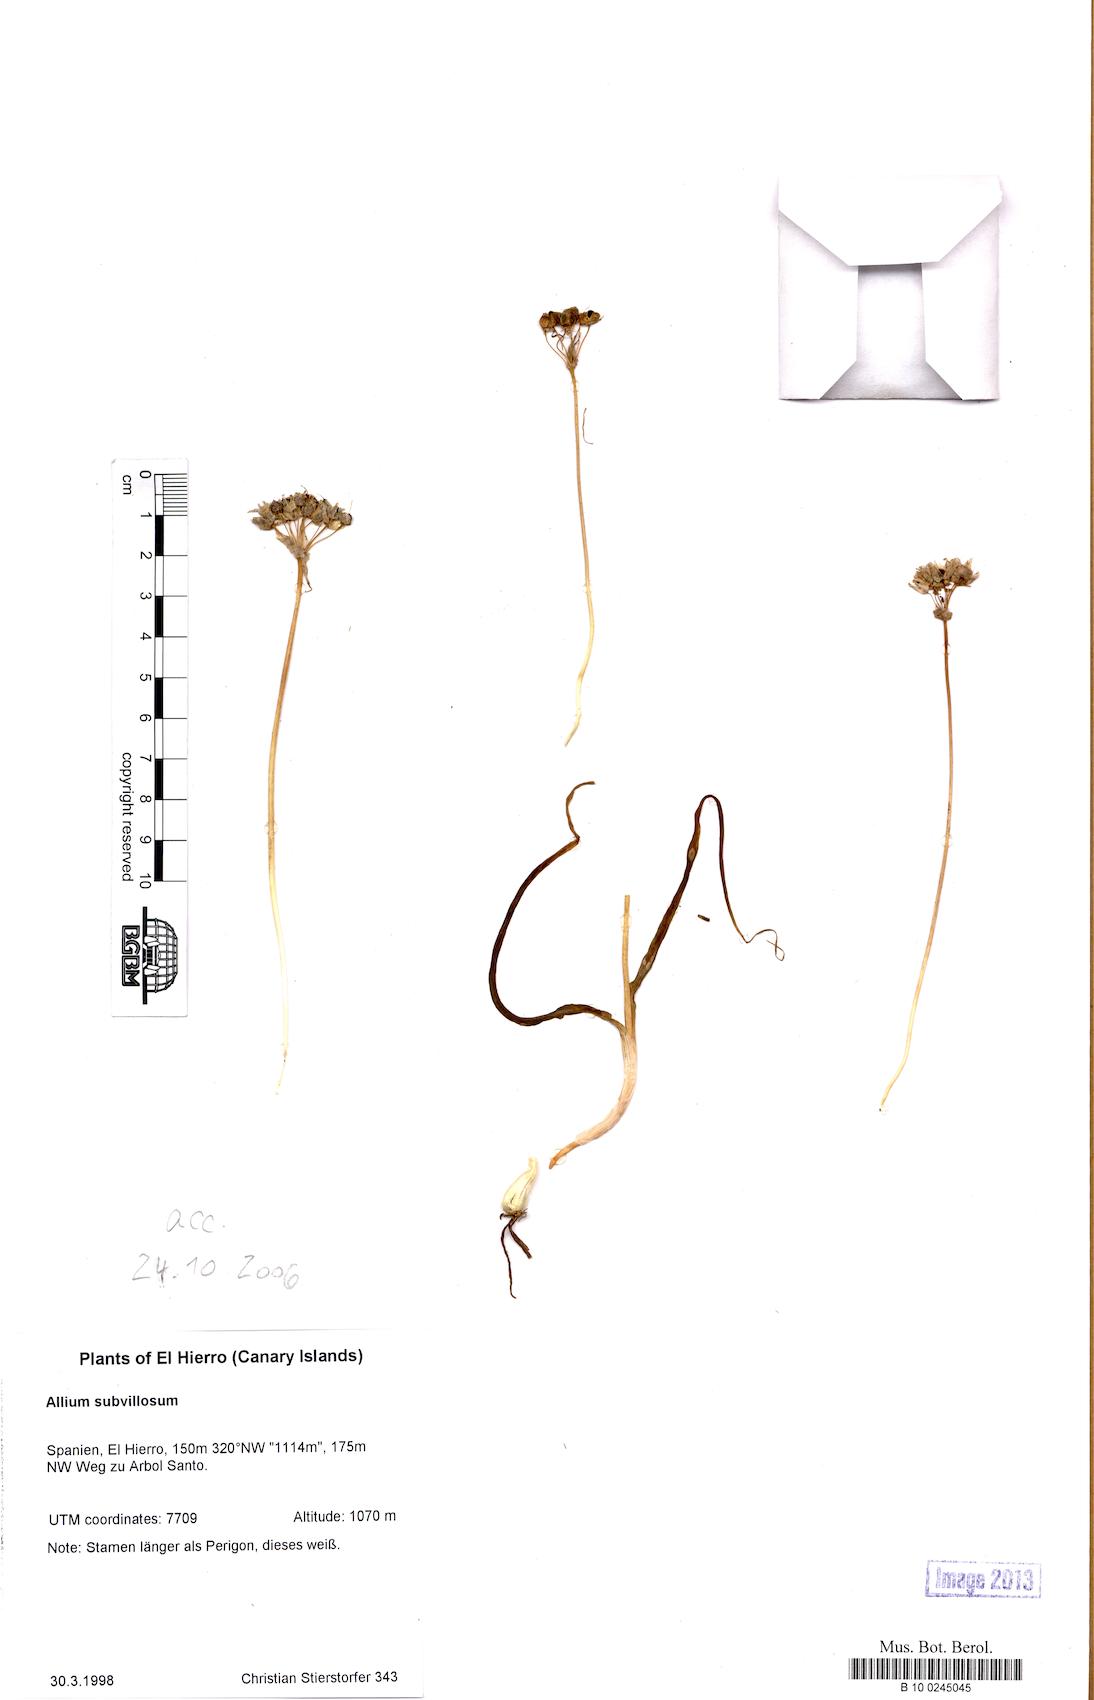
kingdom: Plantae
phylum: Tracheophyta
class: Liliopsida
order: Asparagales
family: Amaryllidaceae
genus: Allium
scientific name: Allium subvillosum
